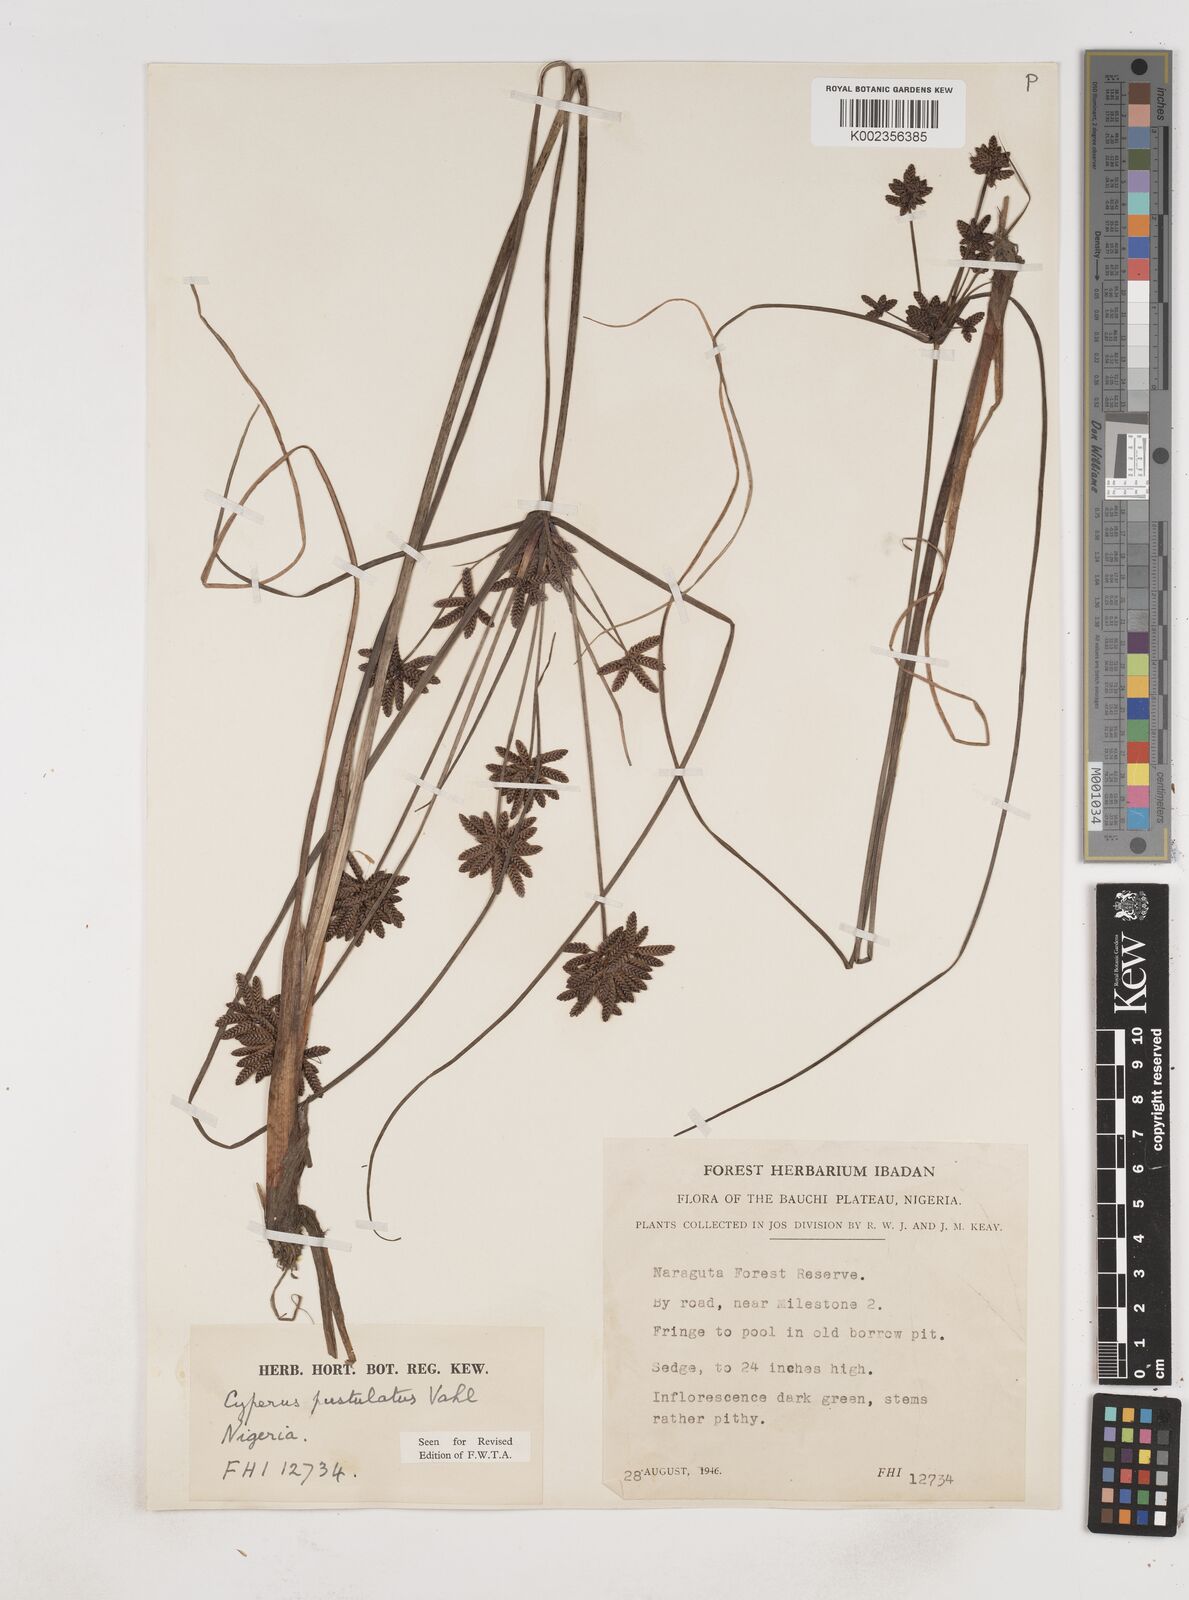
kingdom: Plantae
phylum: Tracheophyta
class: Liliopsida
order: Poales
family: Cyperaceae
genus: Cyperus
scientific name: Cyperus pustulatus
